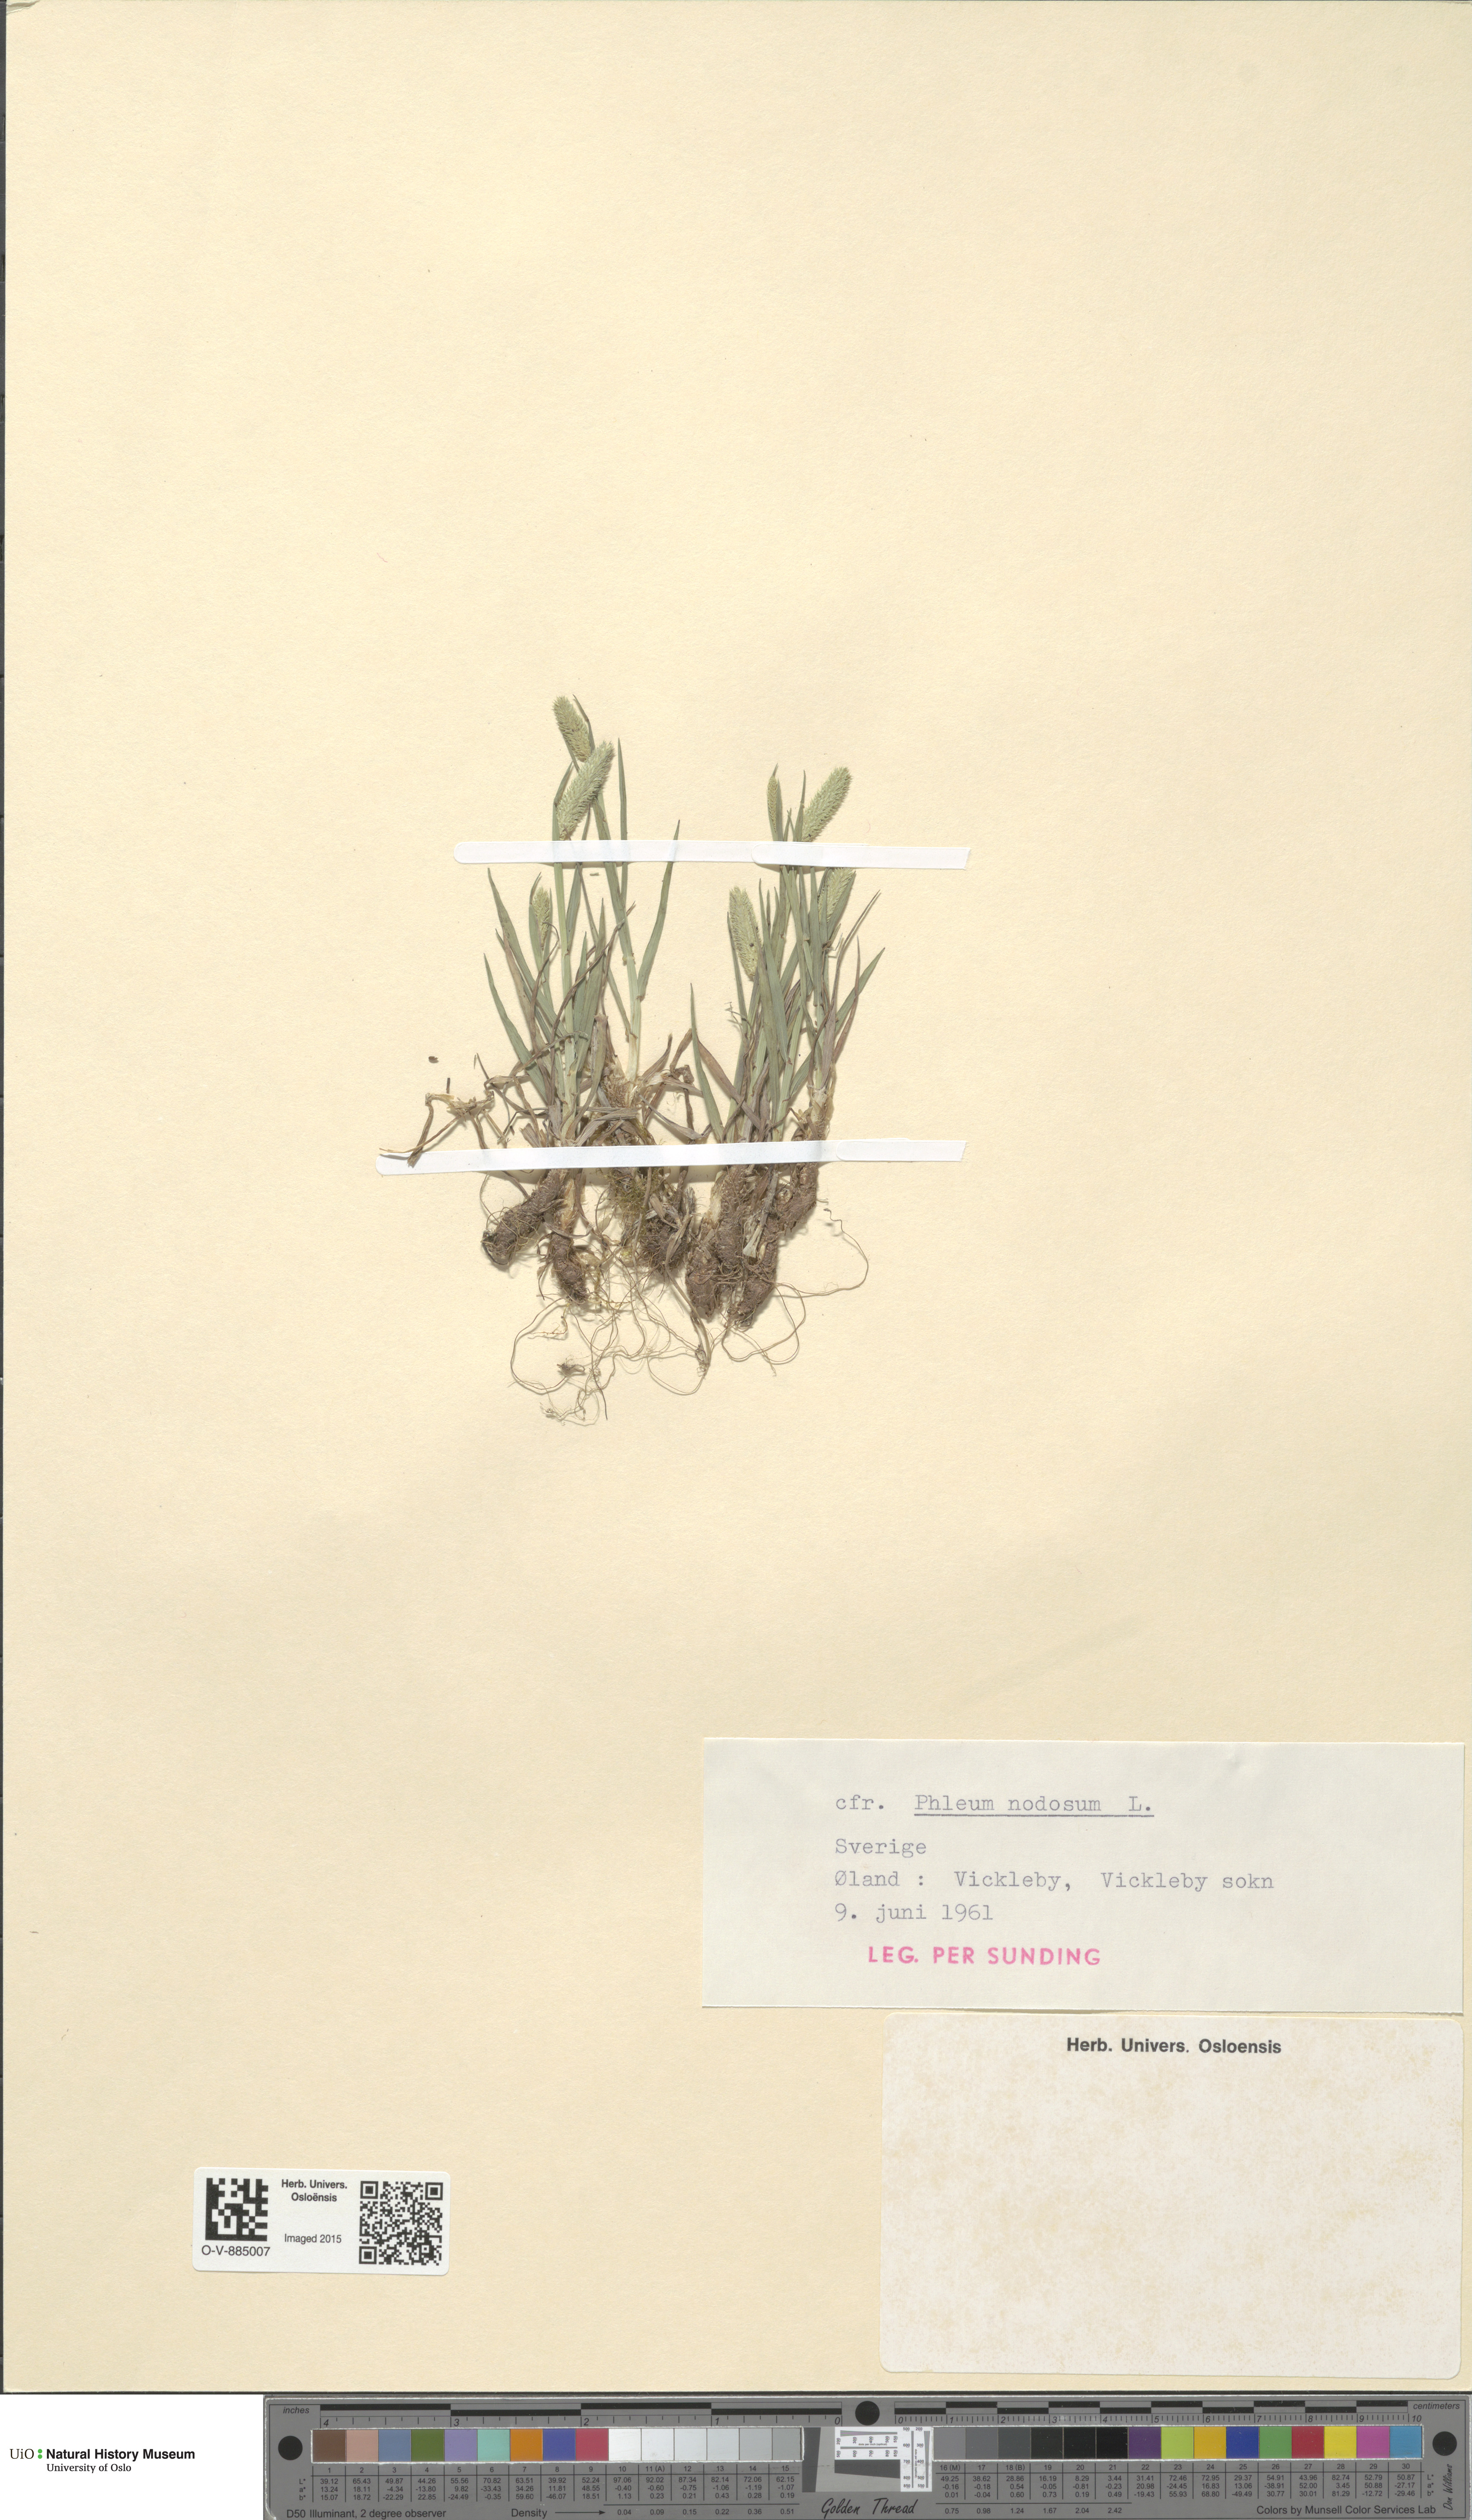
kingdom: Plantae
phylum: Tracheophyta
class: Liliopsida
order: Poales
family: Poaceae
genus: Phleum
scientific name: Phleum bertolonii
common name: Smaller cat's-tail
